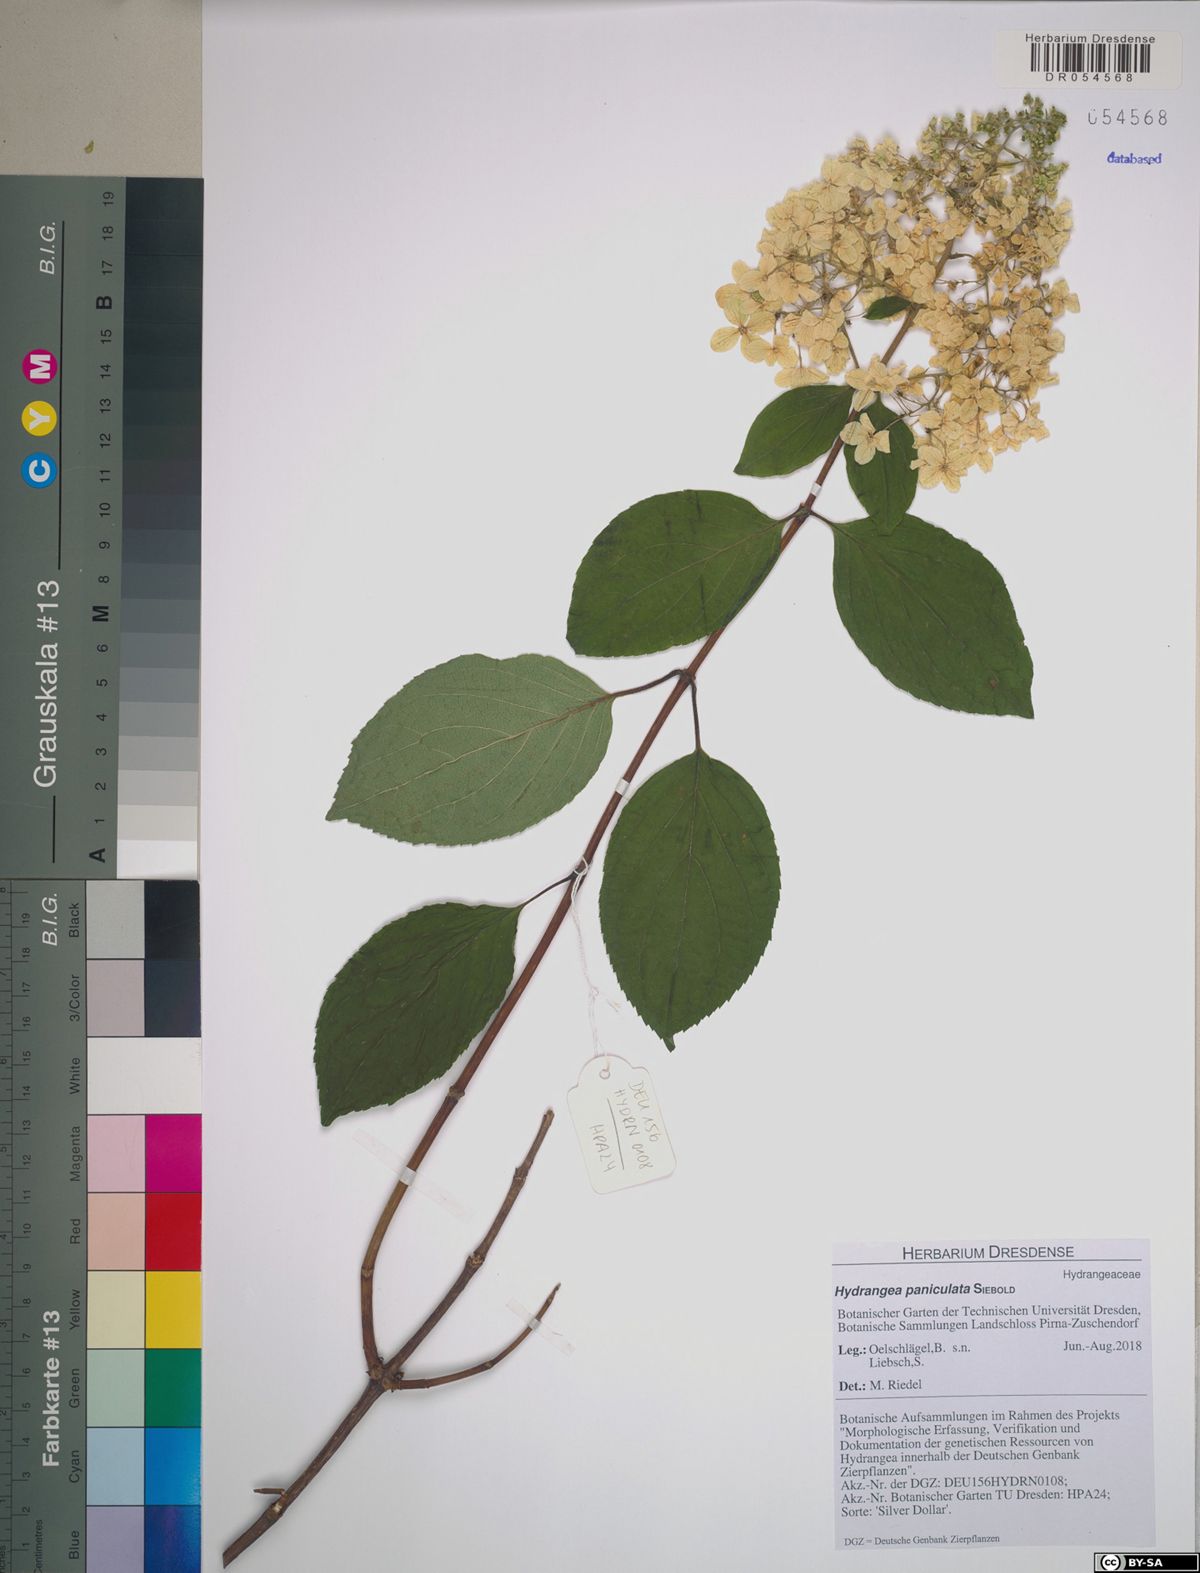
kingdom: Plantae
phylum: Tracheophyta
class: Magnoliopsida
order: Cornales
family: Hydrangeaceae
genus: Hydrangea
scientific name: Hydrangea paniculata
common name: Panicled hydrangea
